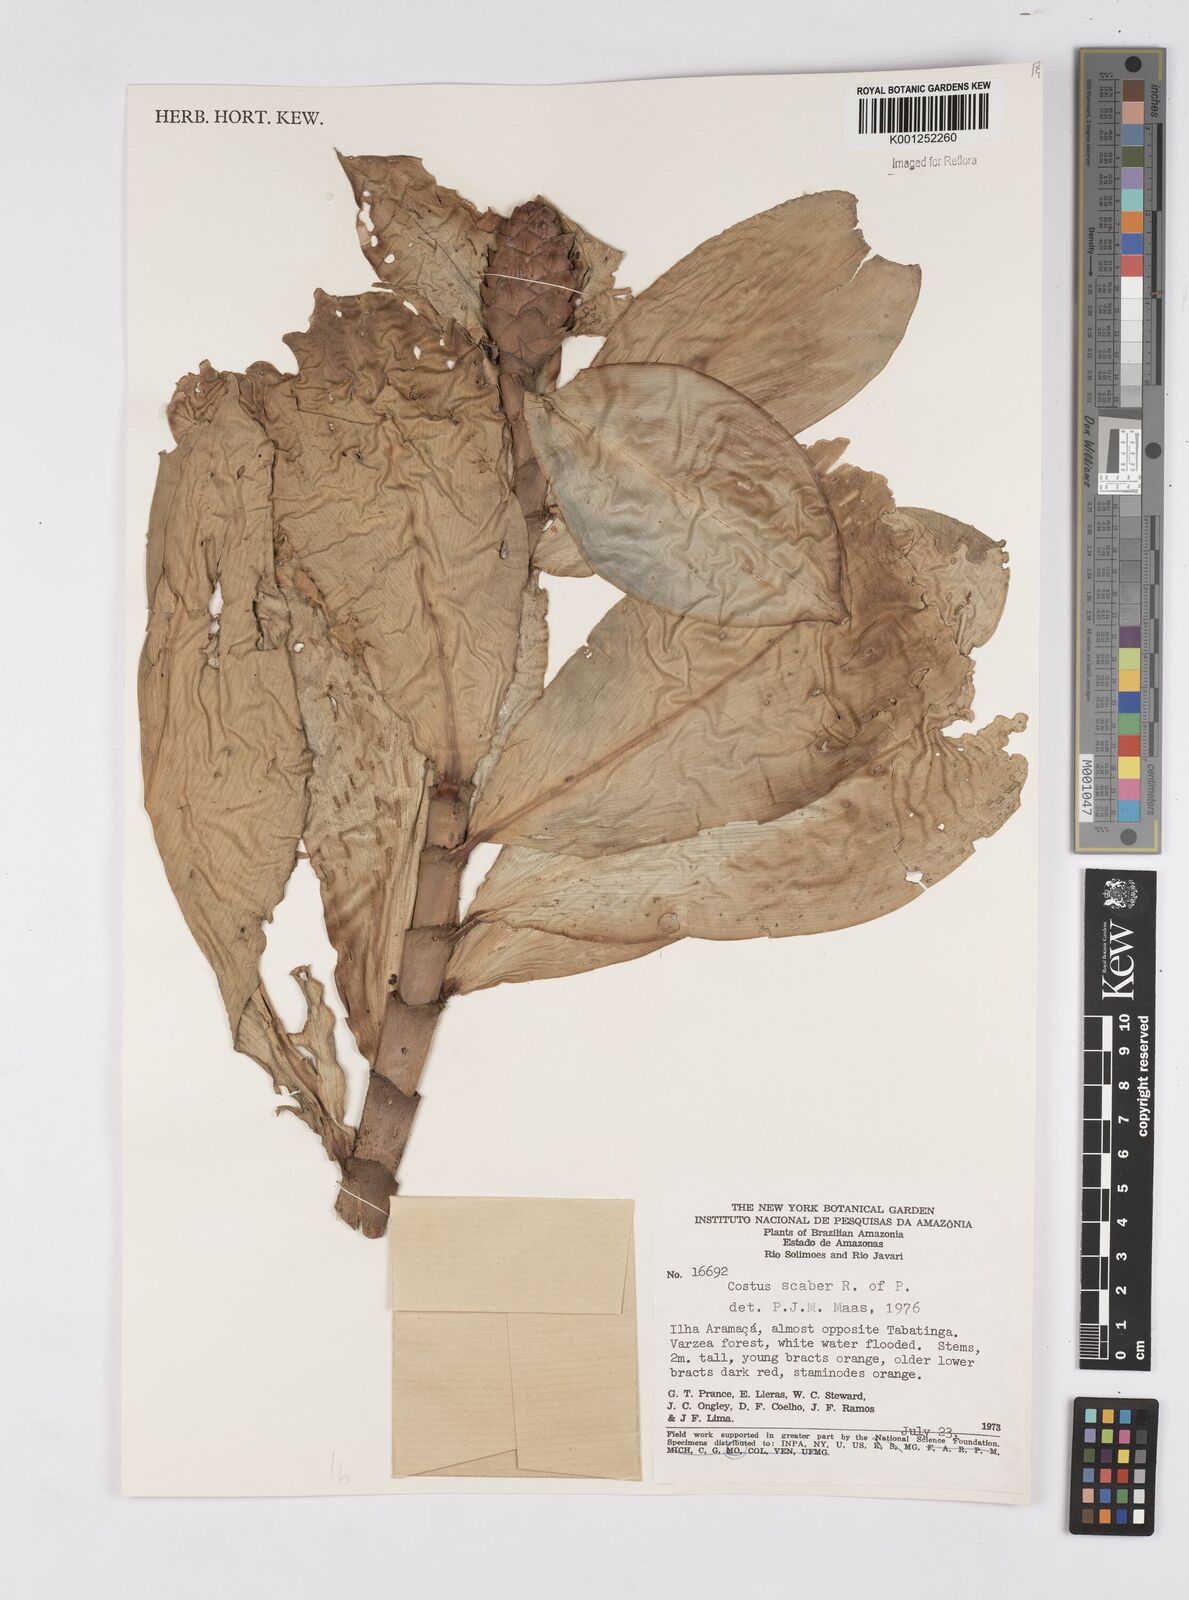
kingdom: Plantae
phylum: Tracheophyta
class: Liliopsida
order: Zingiberales
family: Costaceae
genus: Costus
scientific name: Costus scaber
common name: Spiral head ginger
